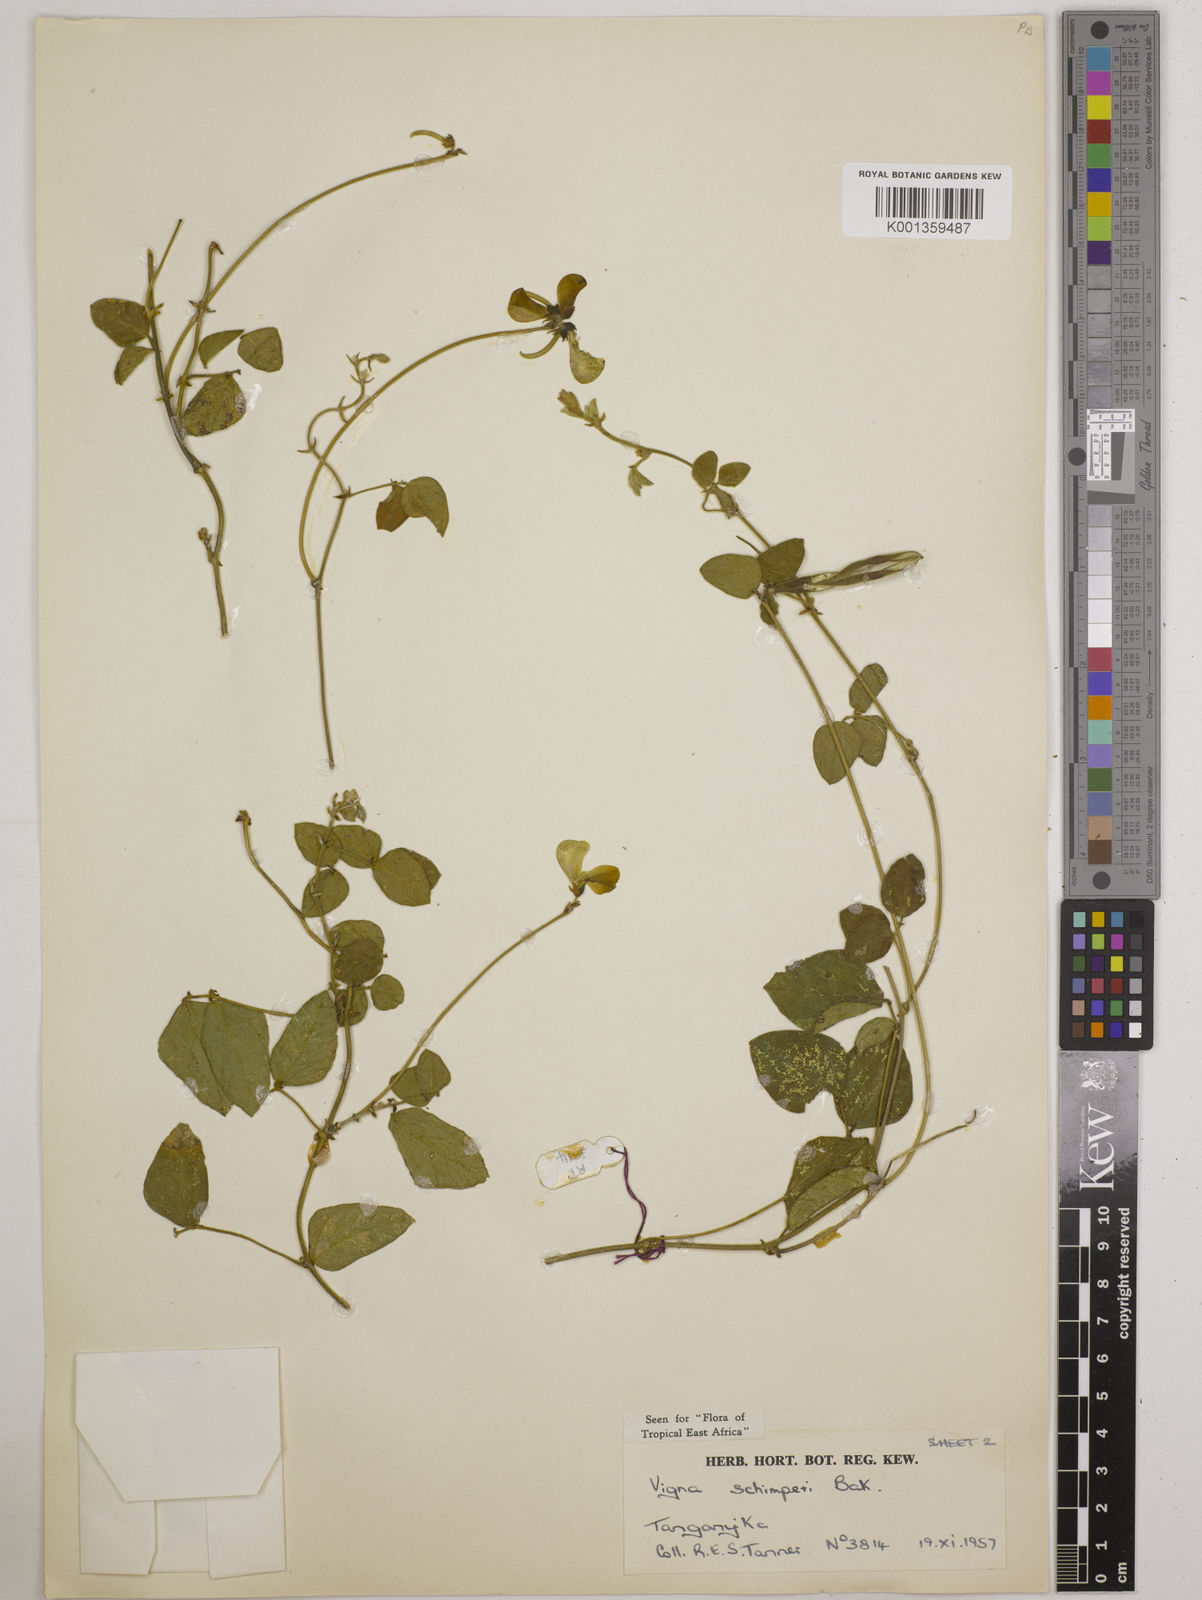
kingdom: Plantae
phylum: Tracheophyta
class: Magnoliopsida
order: Fabales
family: Fabaceae
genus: Vigna
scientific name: Vigna schimperi
